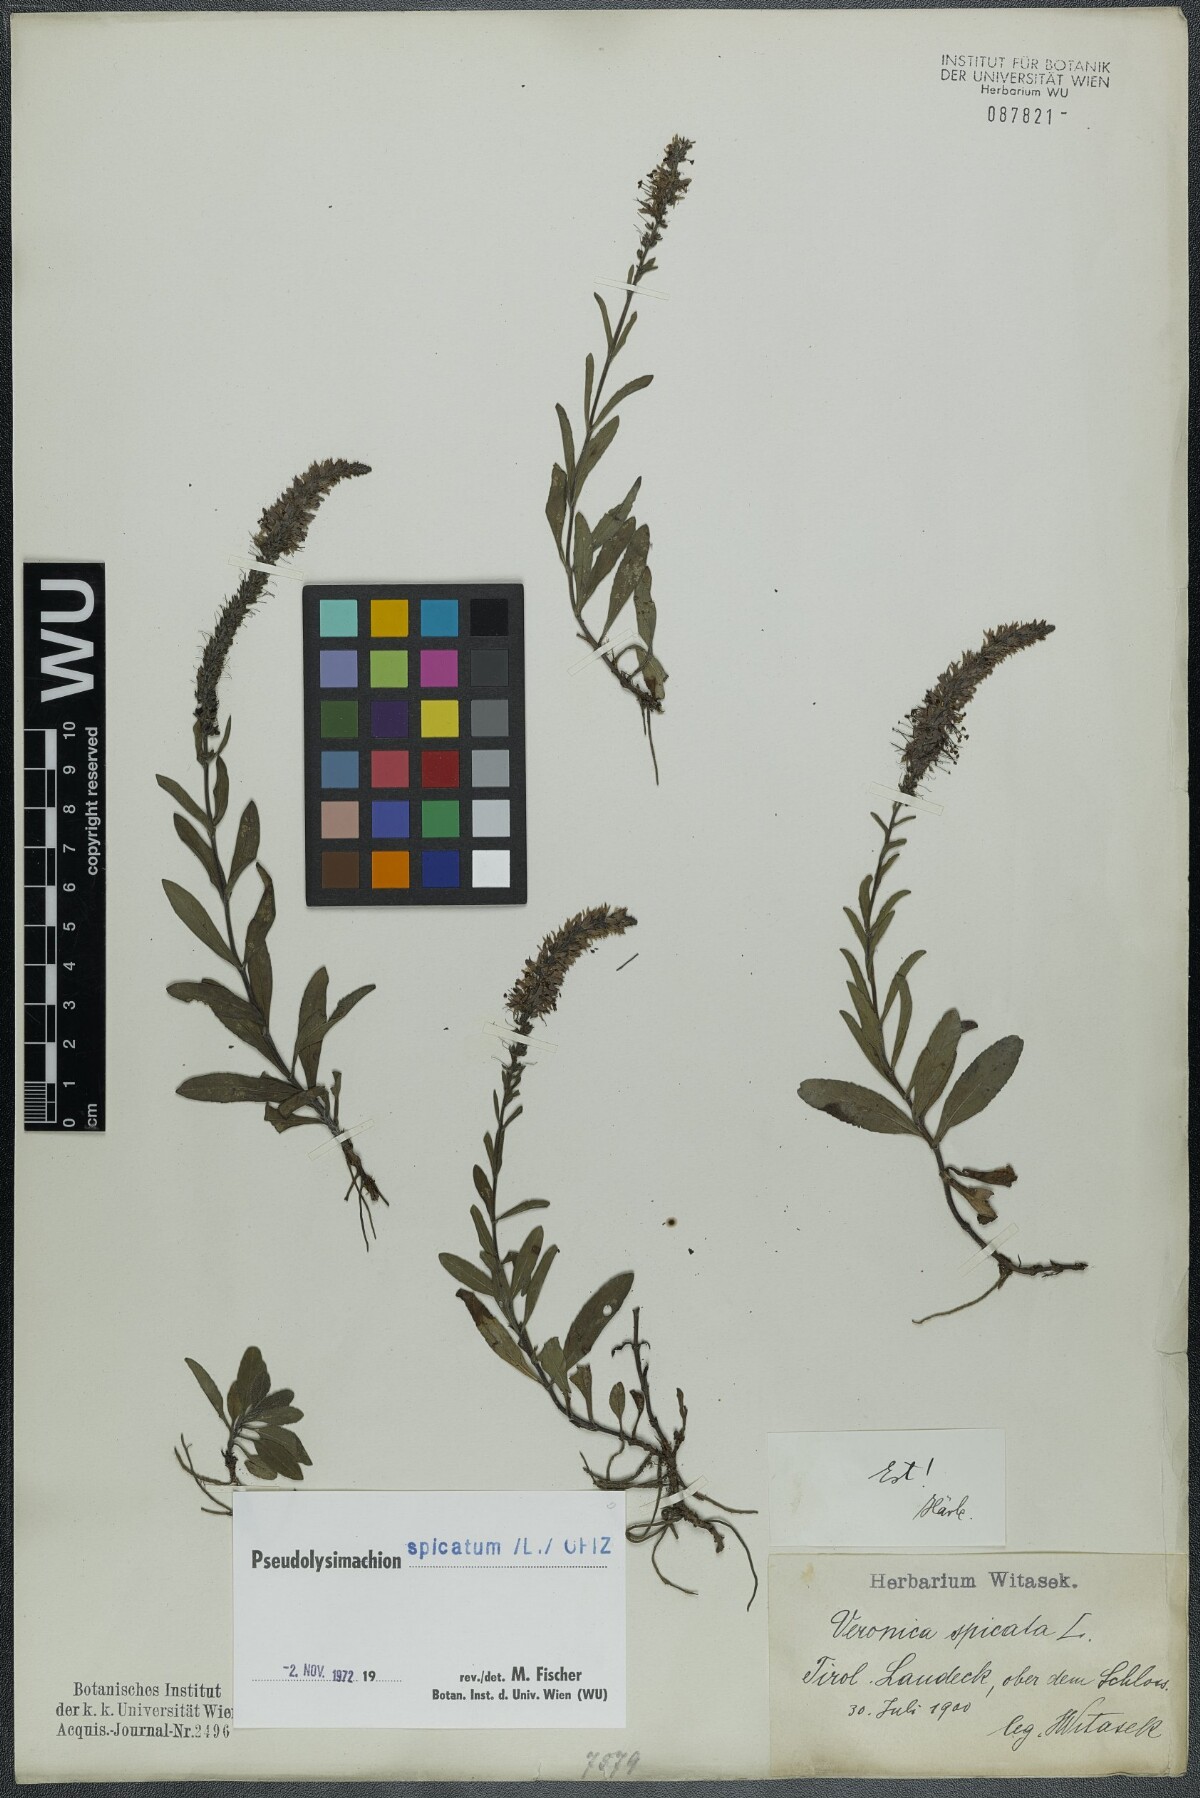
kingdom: Plantae
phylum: Tracheophyta
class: Magnoliopsida
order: Lamiales
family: Plantaginaceae
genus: Veronica
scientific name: Veronica spicata
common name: Spiked speedwell
